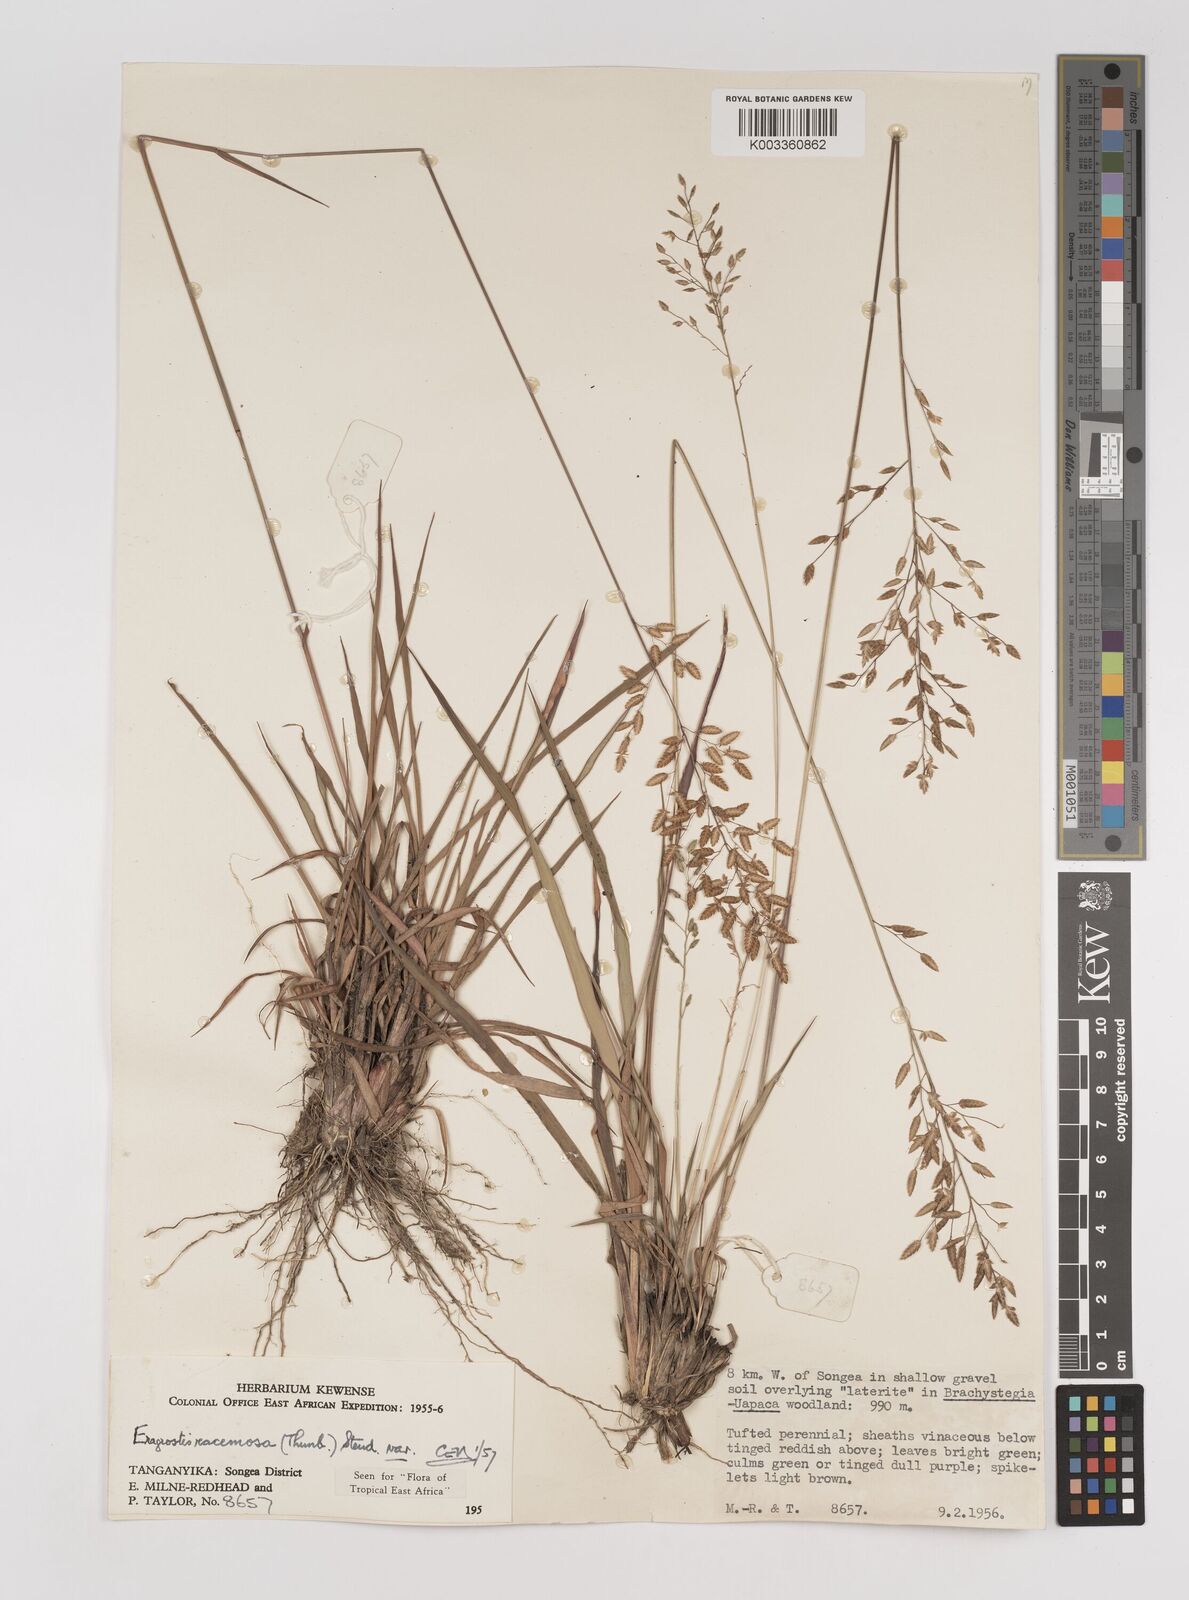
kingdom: Plantae
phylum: Tracheophyta
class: Liliopsida
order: Poales
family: Poaceae
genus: Eragrostis
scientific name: Eragrostis racemosa
